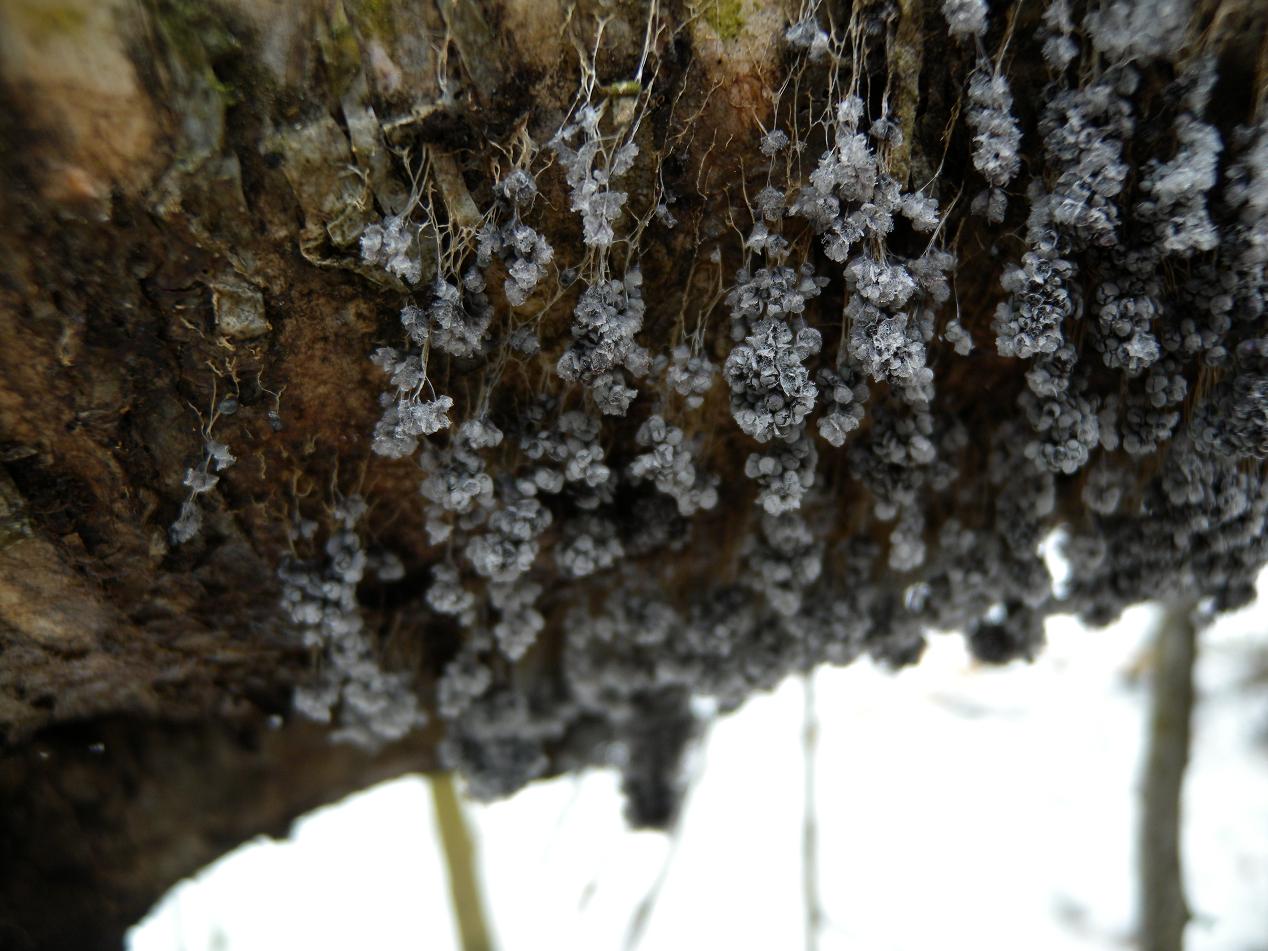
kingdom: Protozoa
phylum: Mycetozoa
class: Myxomycetes
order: Physarales
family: Physaraceae
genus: Badhamia
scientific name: Badhamia utricularis
